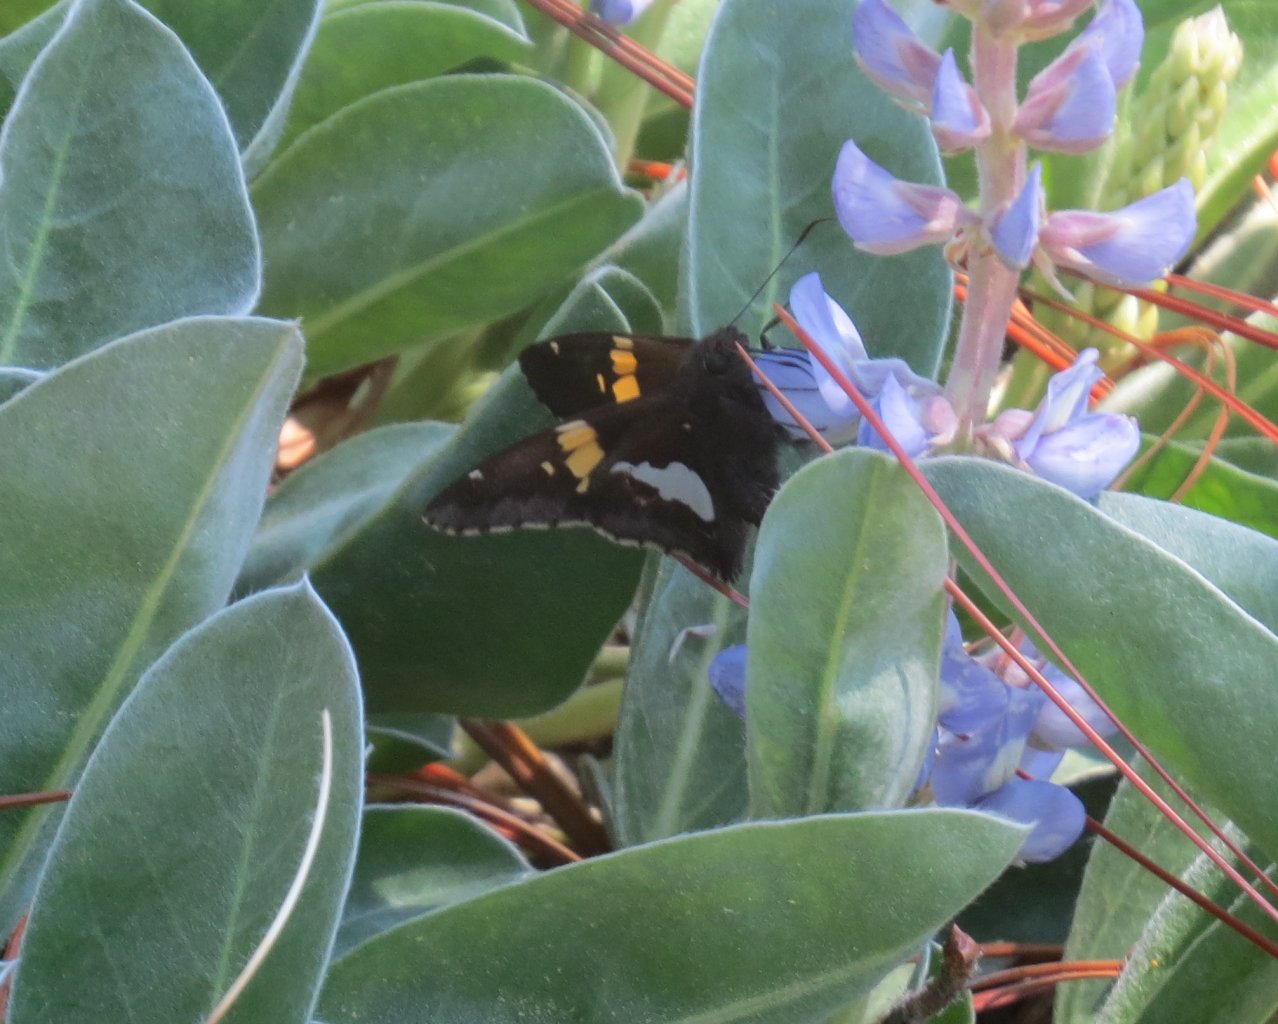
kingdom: Animalia
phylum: Arthropoda
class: Insecta
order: Lepidoptera
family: Hesperiidae
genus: Epargyreus
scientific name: Epargyreus clarus
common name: Silver-spotted Skipper
